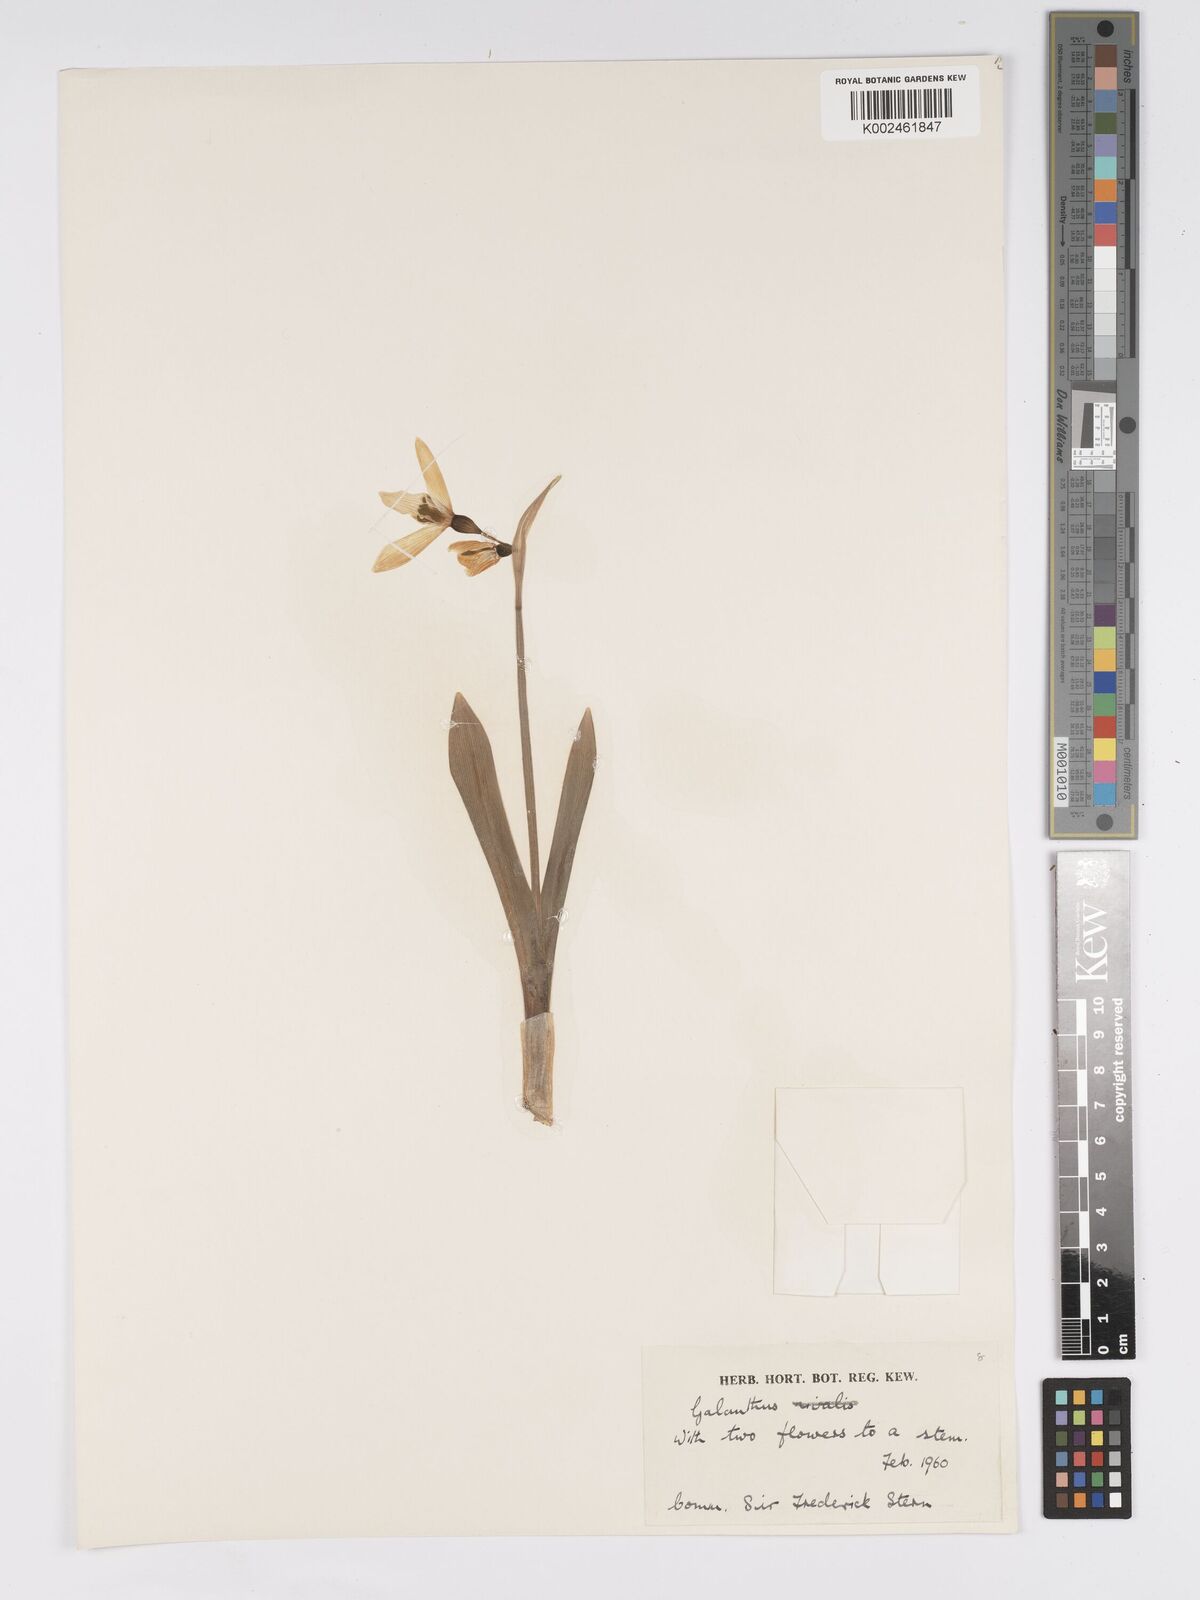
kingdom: Plantae
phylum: Tracheophyta
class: Liliopsida
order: Asparagales
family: Amaryllidaceae
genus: Galanthus
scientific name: Galanthus
